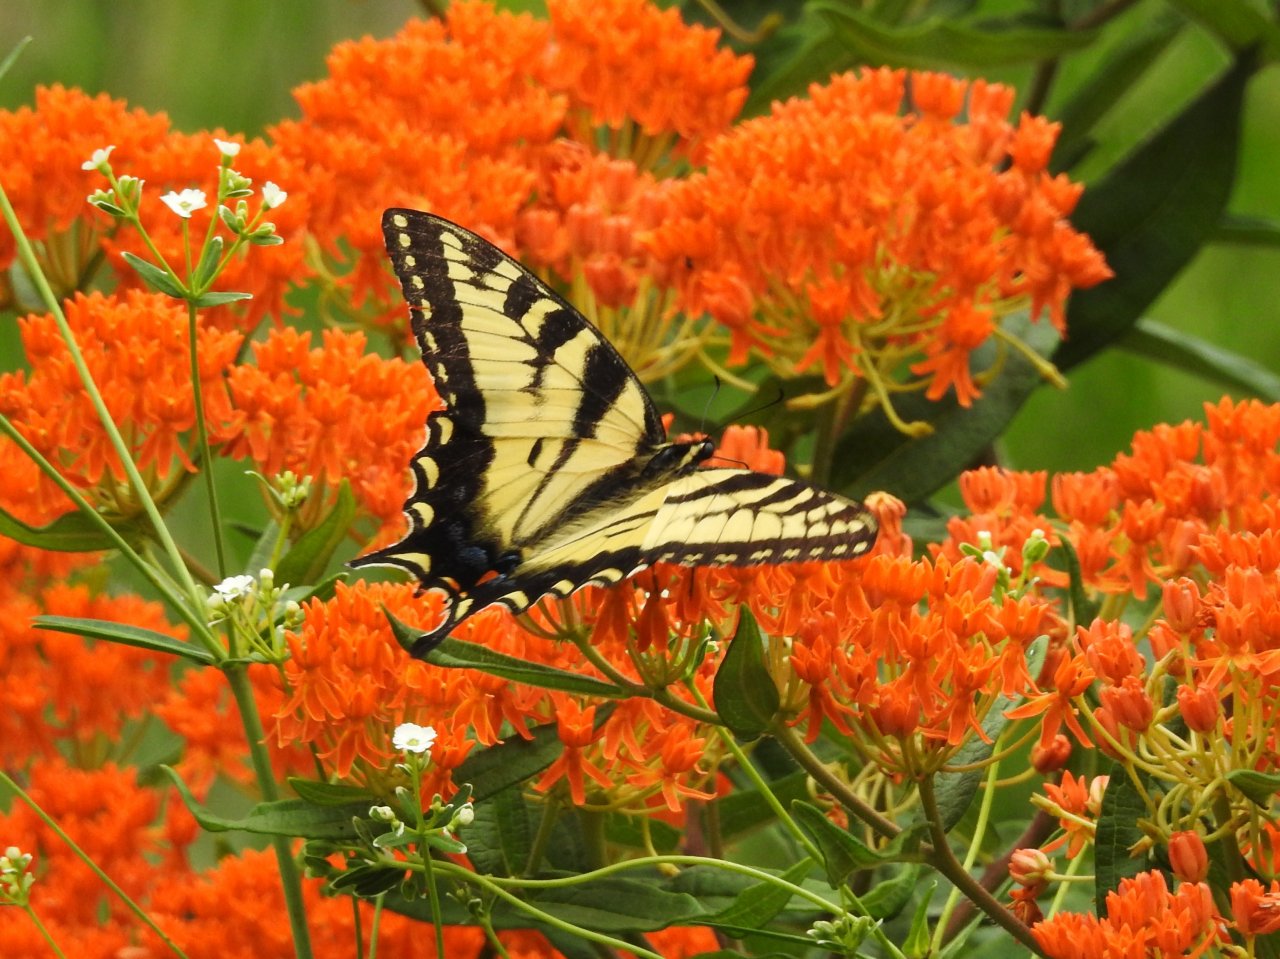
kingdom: Animalia
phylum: Arthropoda
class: Insecta
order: Lepidoptera
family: Papilionidae
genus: Pterourus
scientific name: Pterourus glaucus
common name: Eastern Tiger Swallowtail
